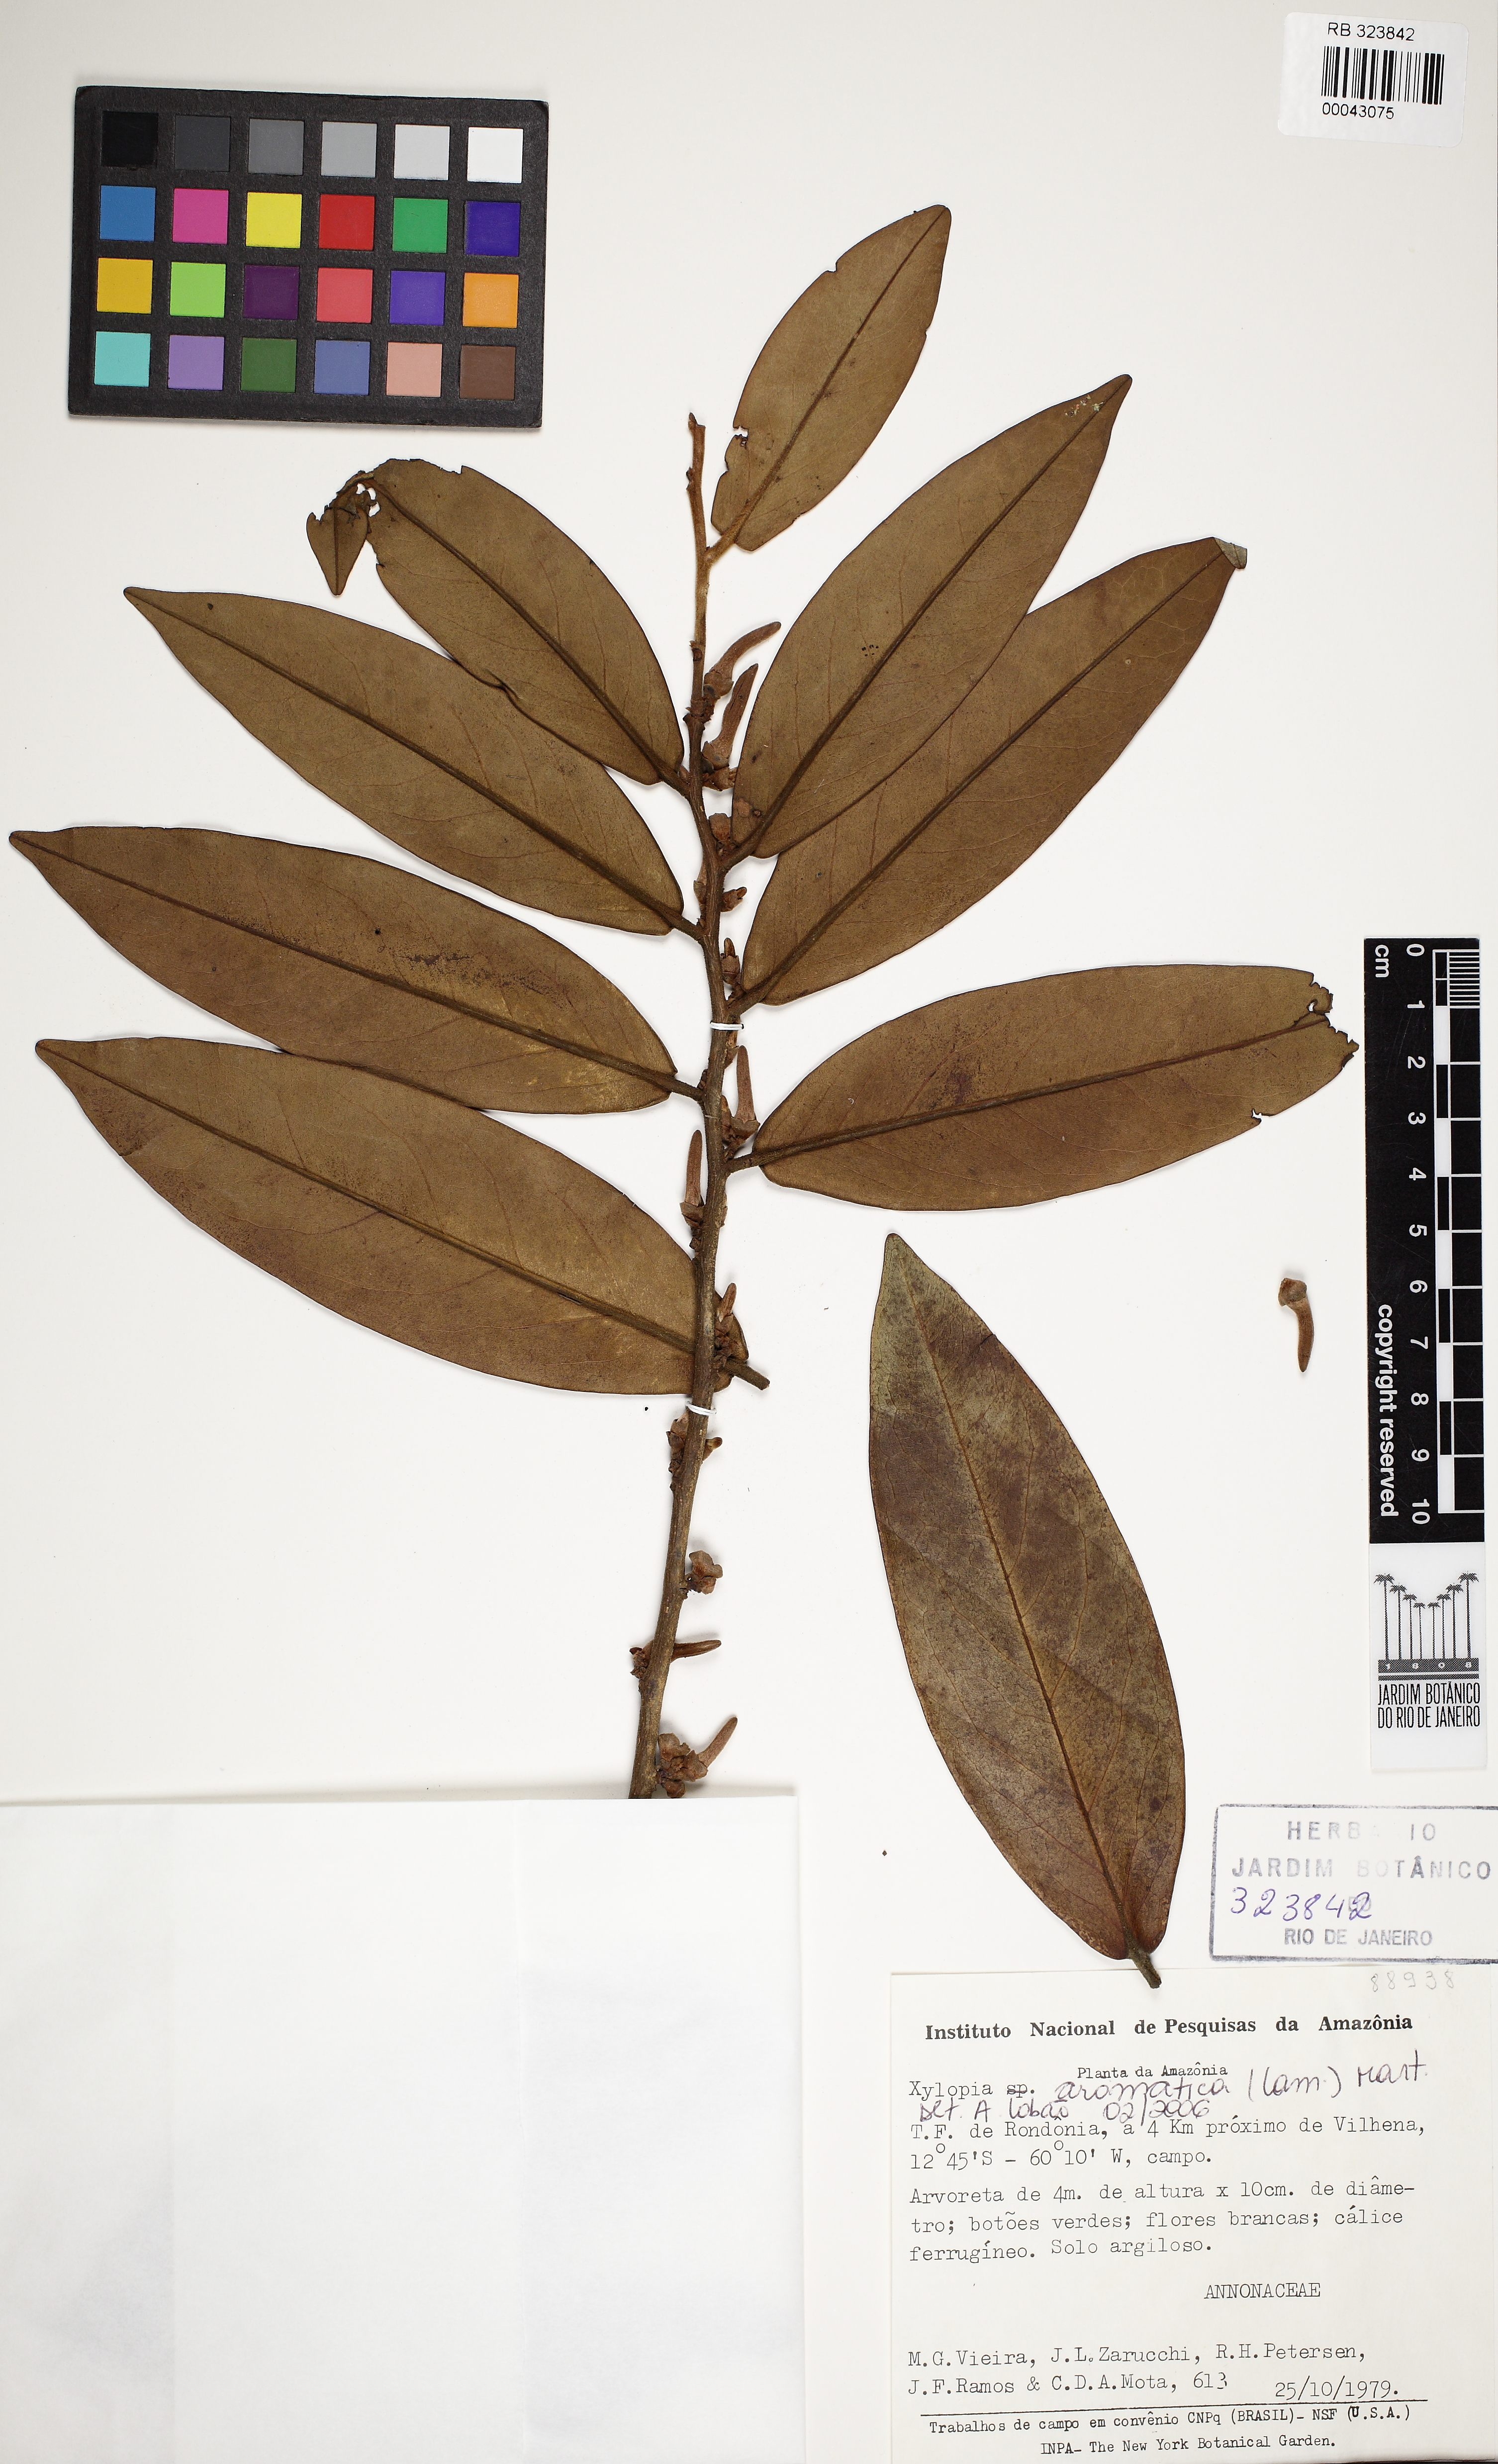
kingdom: Plantae
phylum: Tracheophyta
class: Magnoliopsida
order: Magnoliales
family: Annonaceae
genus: Xylopia
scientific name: Xylopia aromatica
